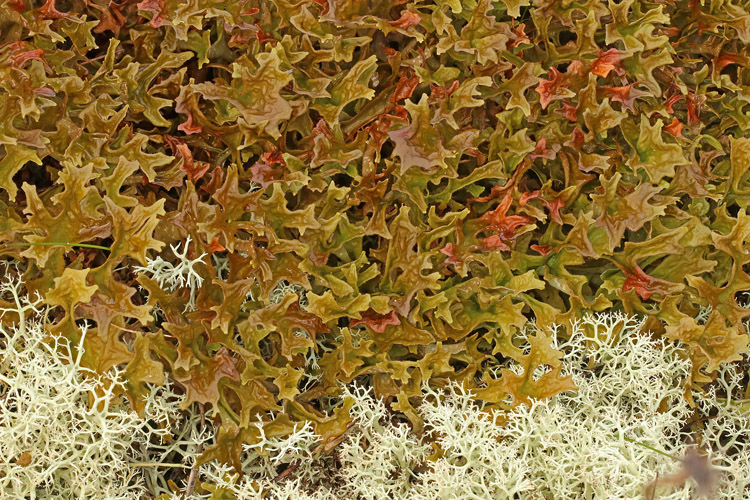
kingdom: Fungi
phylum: Ascomycota
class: Lecanoromycetes
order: Lecanorales
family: Parmeliaceae
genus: Cetraria
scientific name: Cetraria islandica
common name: islandsk kruslav
